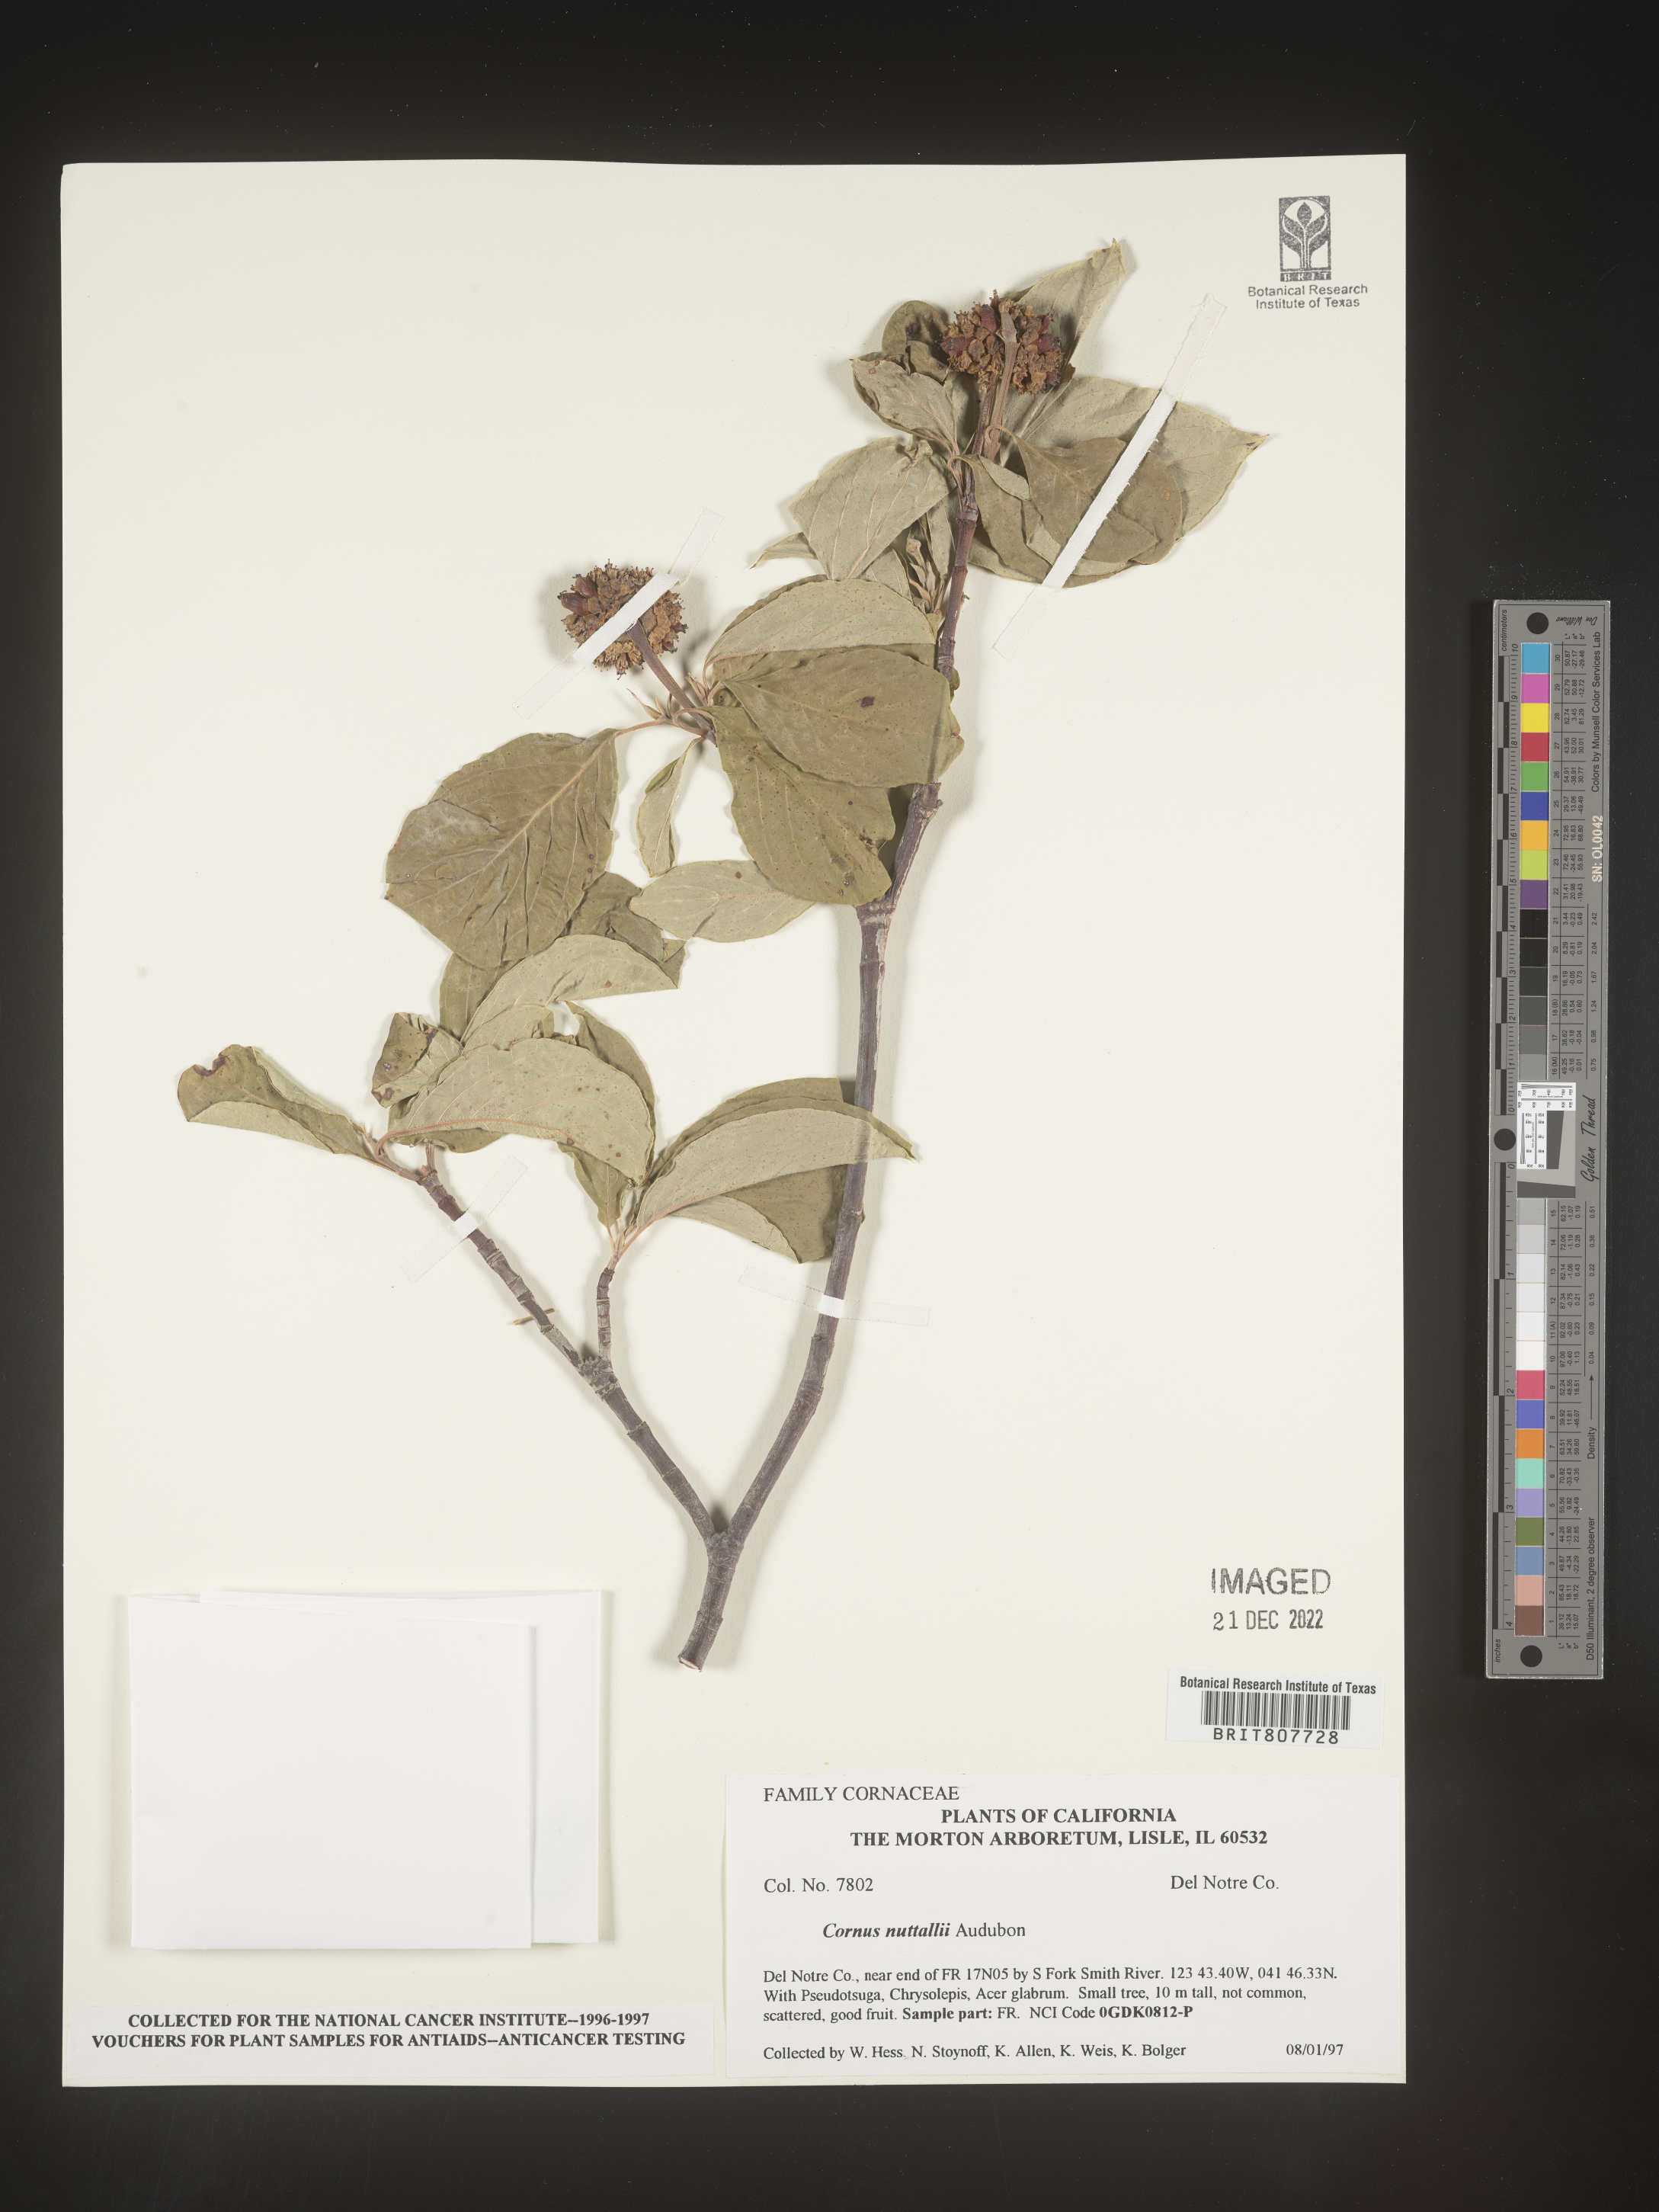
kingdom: Plantae
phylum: Tracheophyta
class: Magnoliopsida
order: Cornales
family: Cornaceae
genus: Cornus
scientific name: Cornus nuttallii
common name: Pacific dogwood
